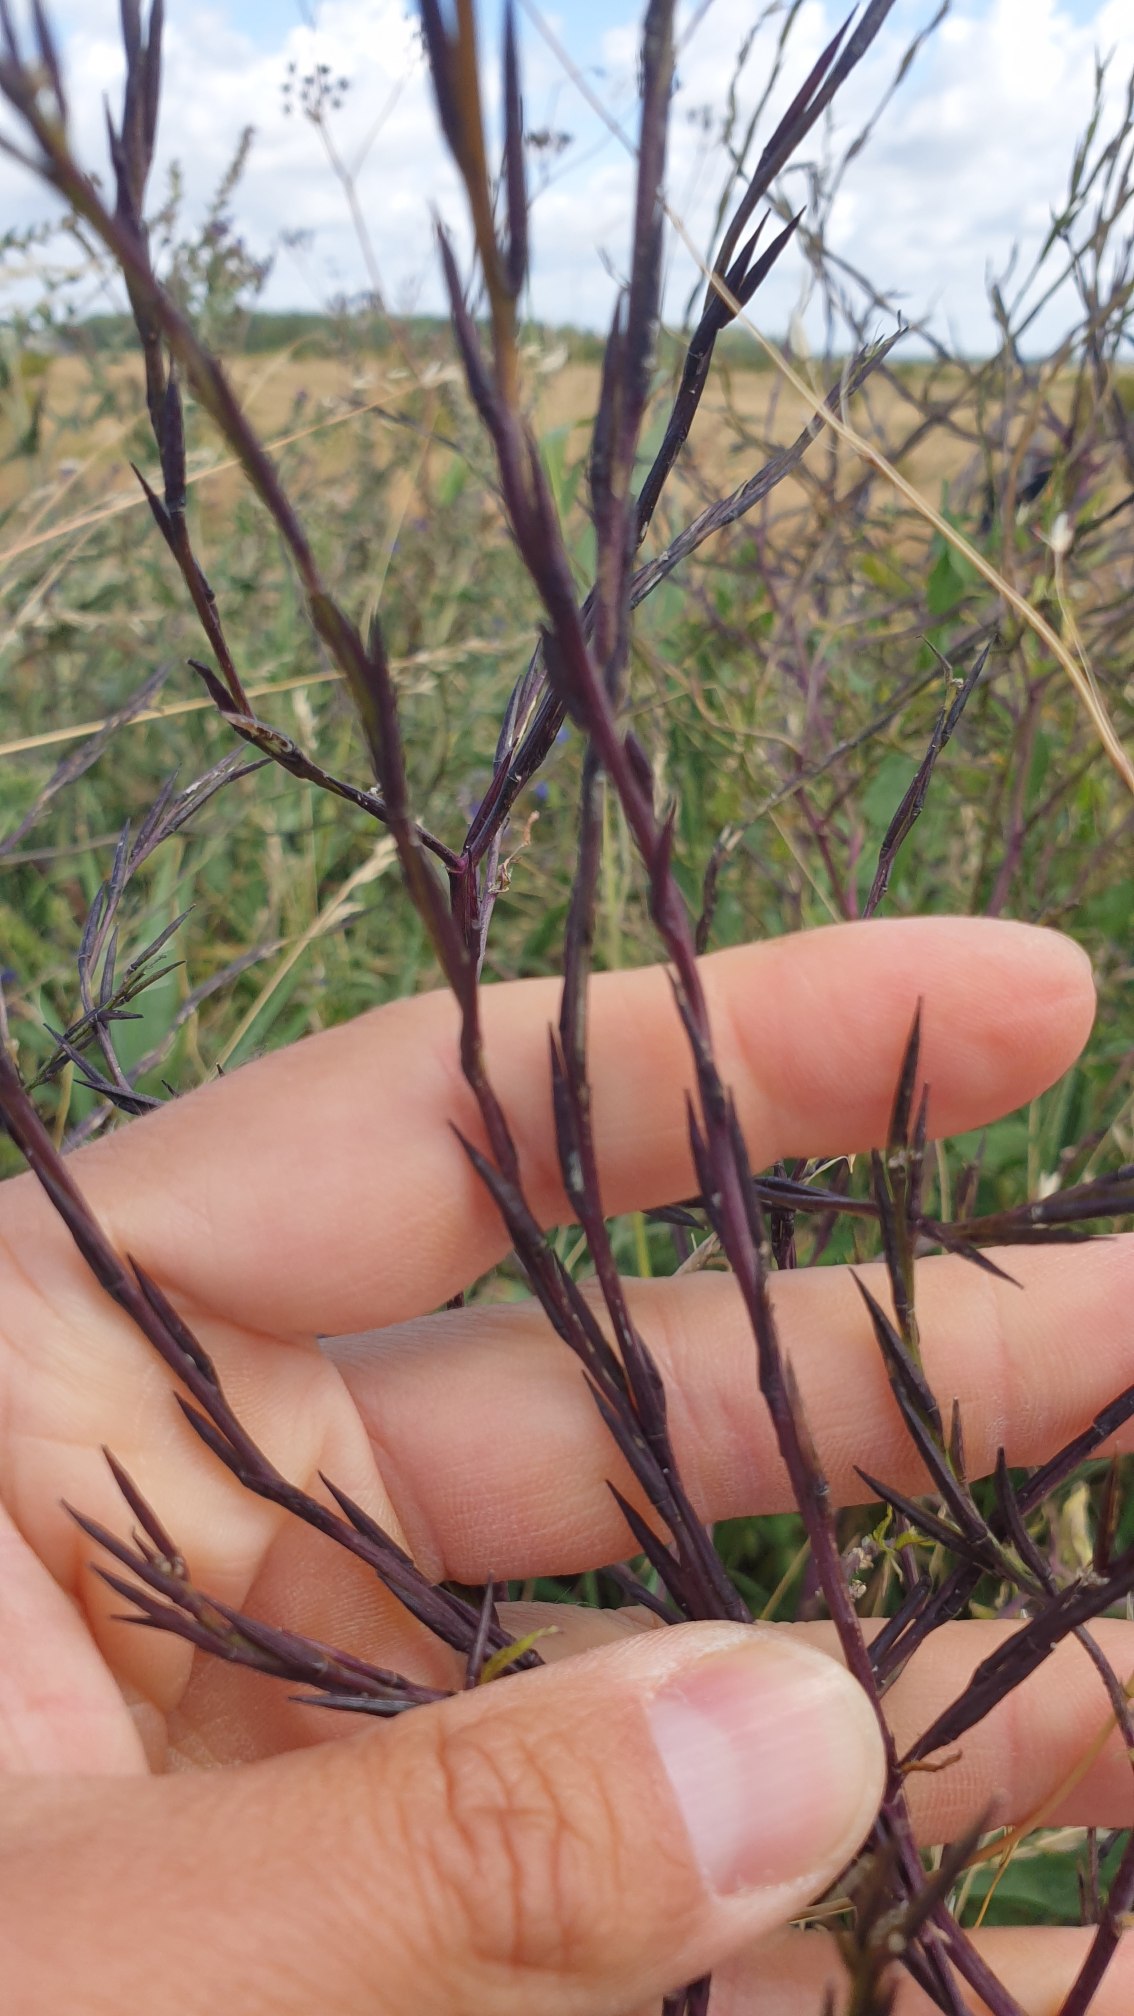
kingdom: Plantae
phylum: Tracheophyta
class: Magnoliopsida
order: Brassicales
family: Brassicaceae
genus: Sisymbrium
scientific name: Sisymbrium officinale
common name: Rank vejsennep
